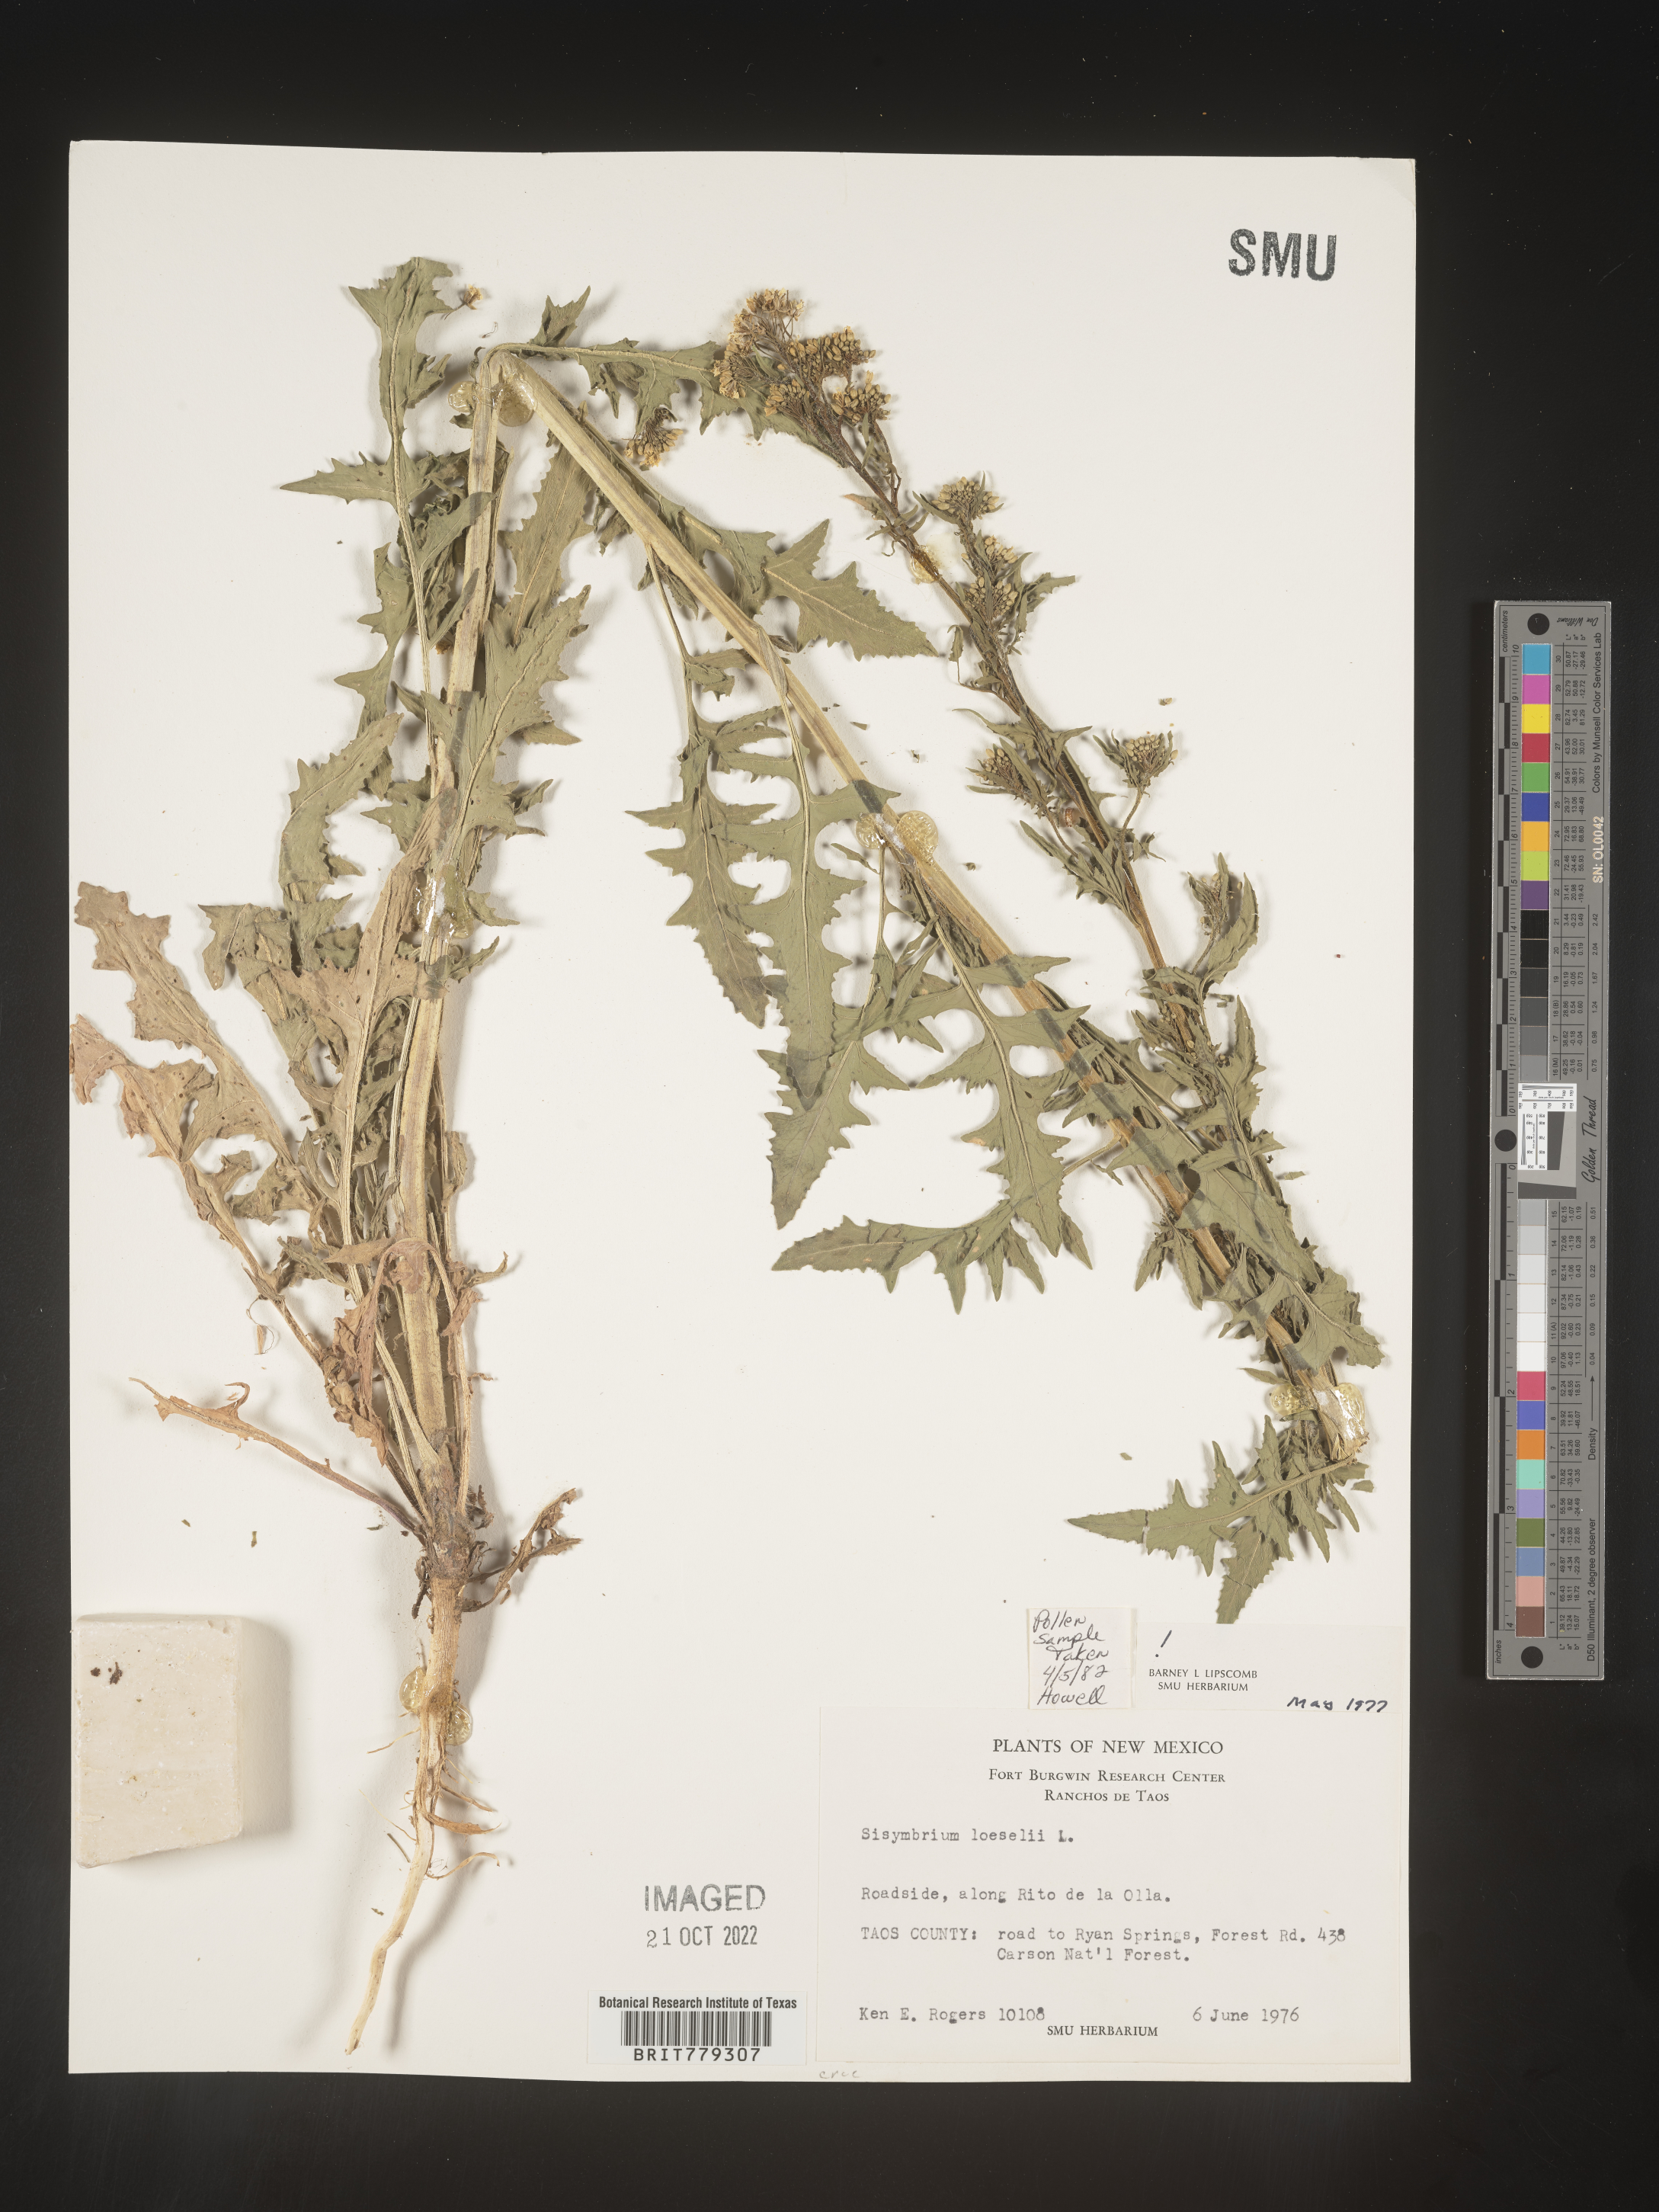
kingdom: Plantae
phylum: Tracheophyta
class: Magnoliopsida
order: Brassicales
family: Brassicaceae
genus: Sisymbrium
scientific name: Sisymbrium
